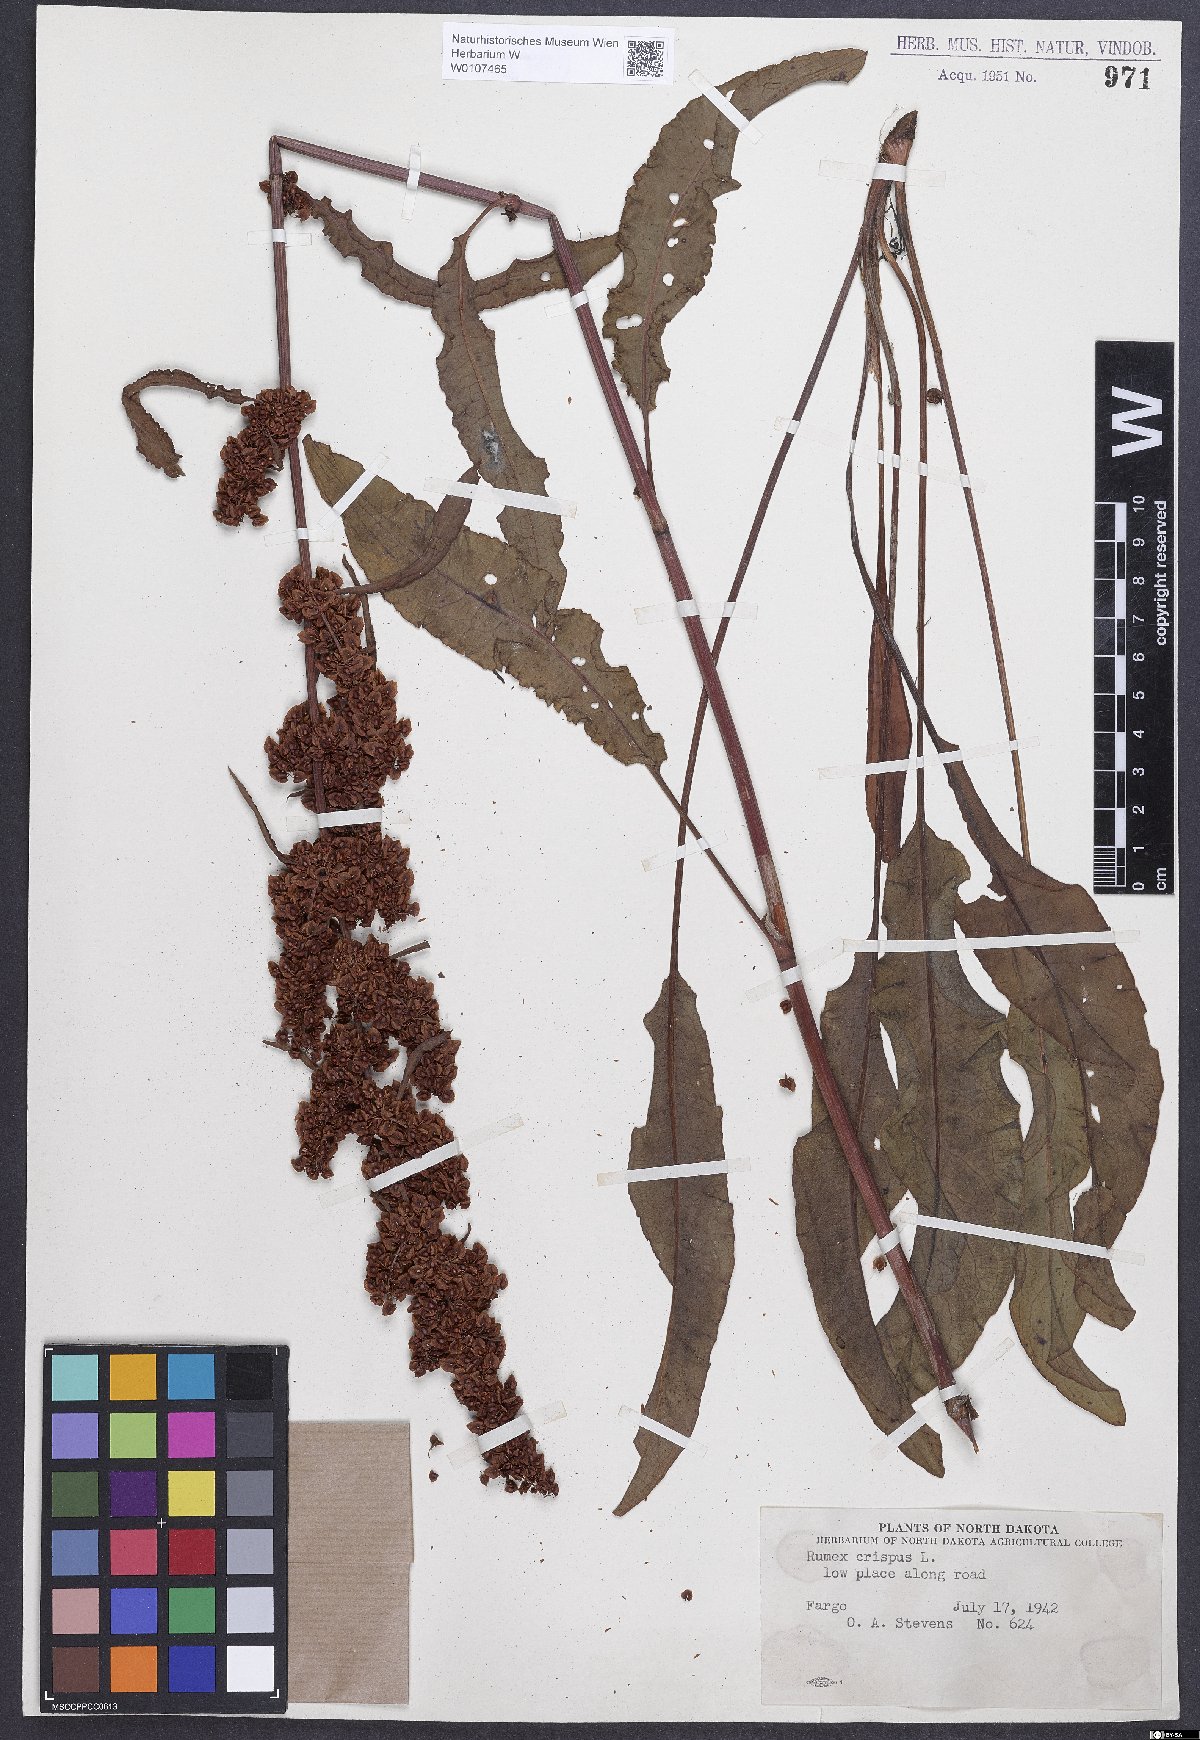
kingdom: Plantae
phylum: Tracheophyta
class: Magnoliopsida
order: Caryophyllales
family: Polygonaceae
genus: Rumex
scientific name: Rumex crispus
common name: Curled dock
